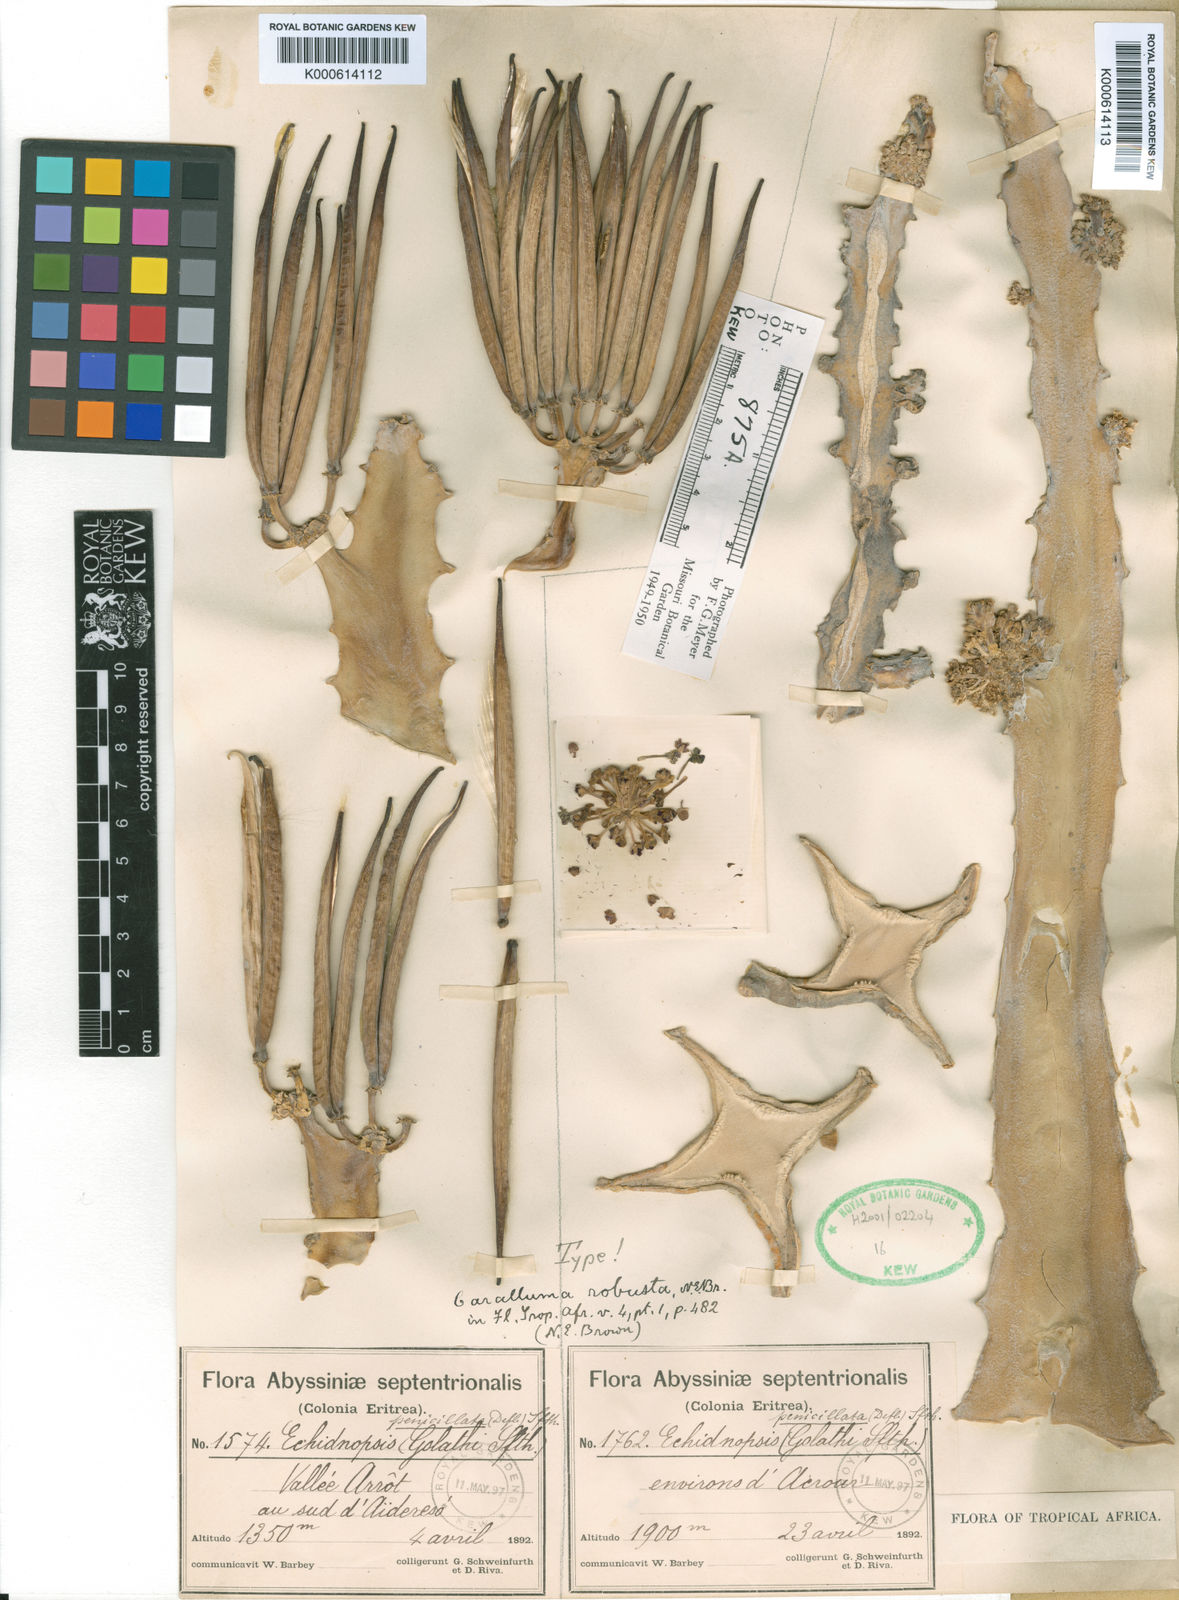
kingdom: Plantae
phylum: Tracheophyta
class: Magnoliopsida
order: Gentianales
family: Apocynaceae
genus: Ceropegia
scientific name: Ceropegia penicillata
